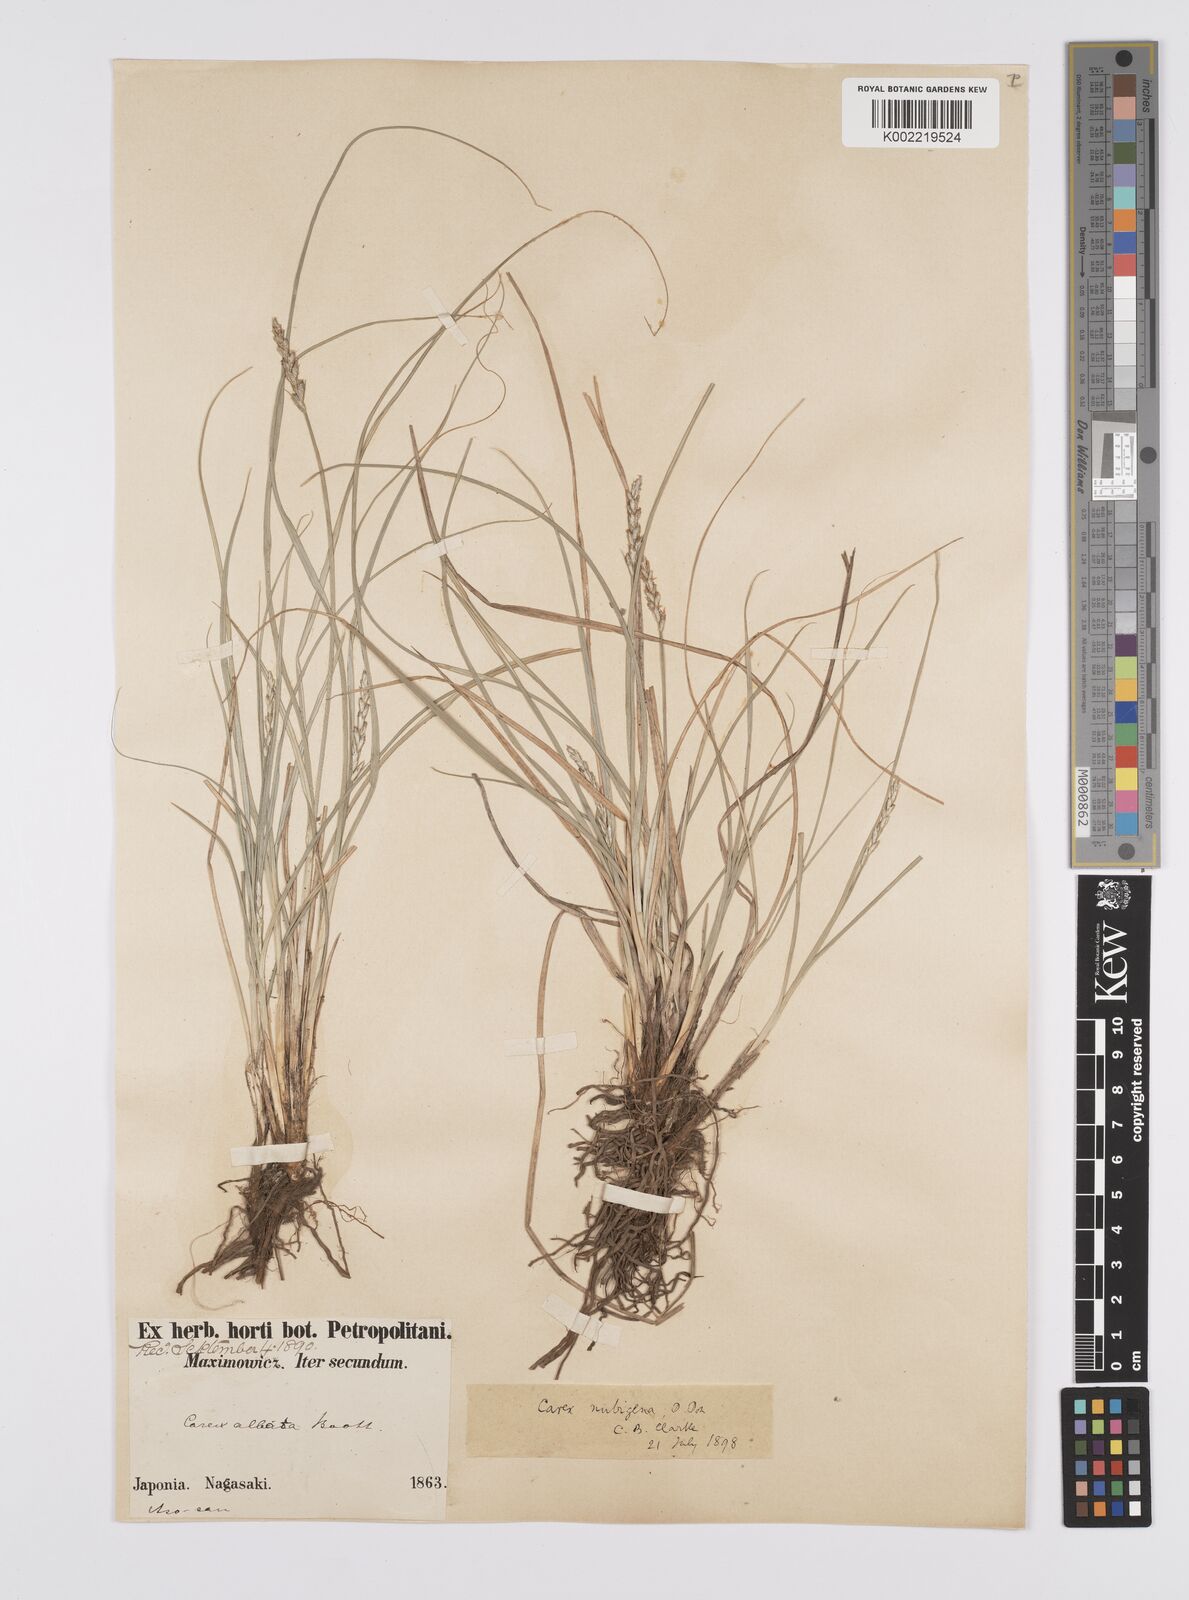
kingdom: Plantae
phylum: Tracheophyta
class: Liliopsida
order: Poales
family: Cyperaceae
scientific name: Cyperaceae
